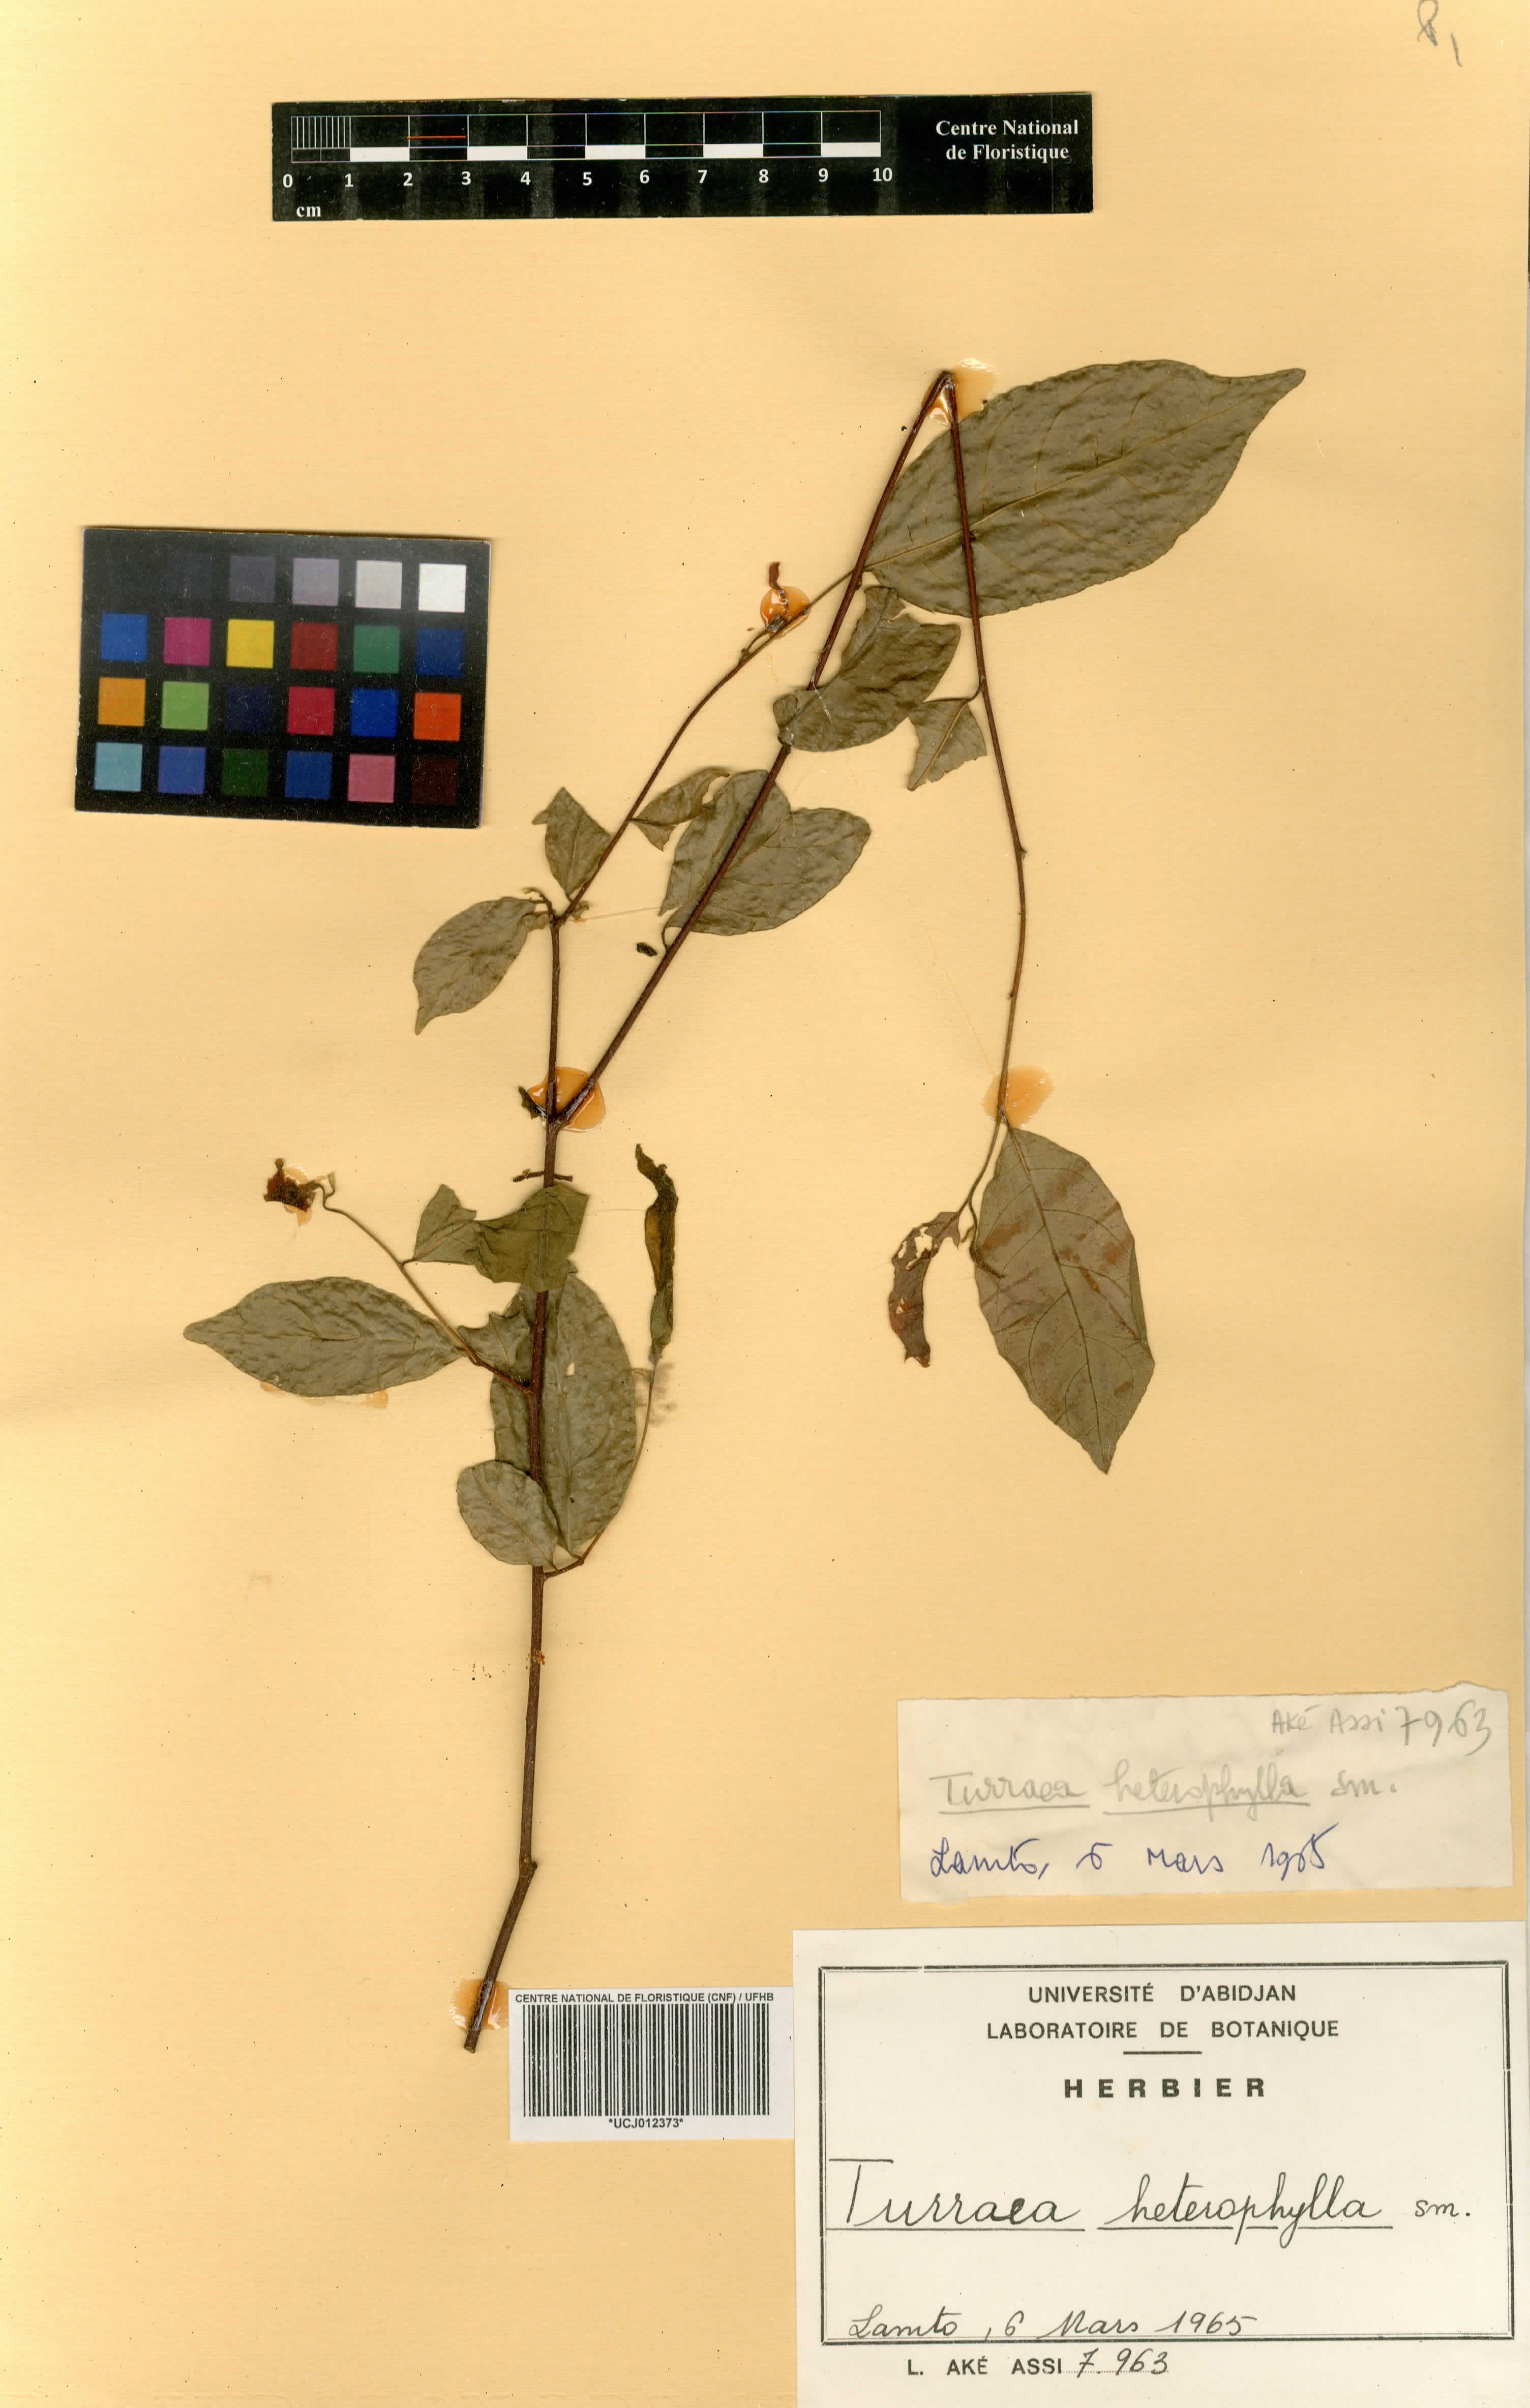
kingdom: Plantae
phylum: Tracheophyta
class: Magnoliopsida
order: Sapindales
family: Meliaceae
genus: Turraea
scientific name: Turraea heterophylla
